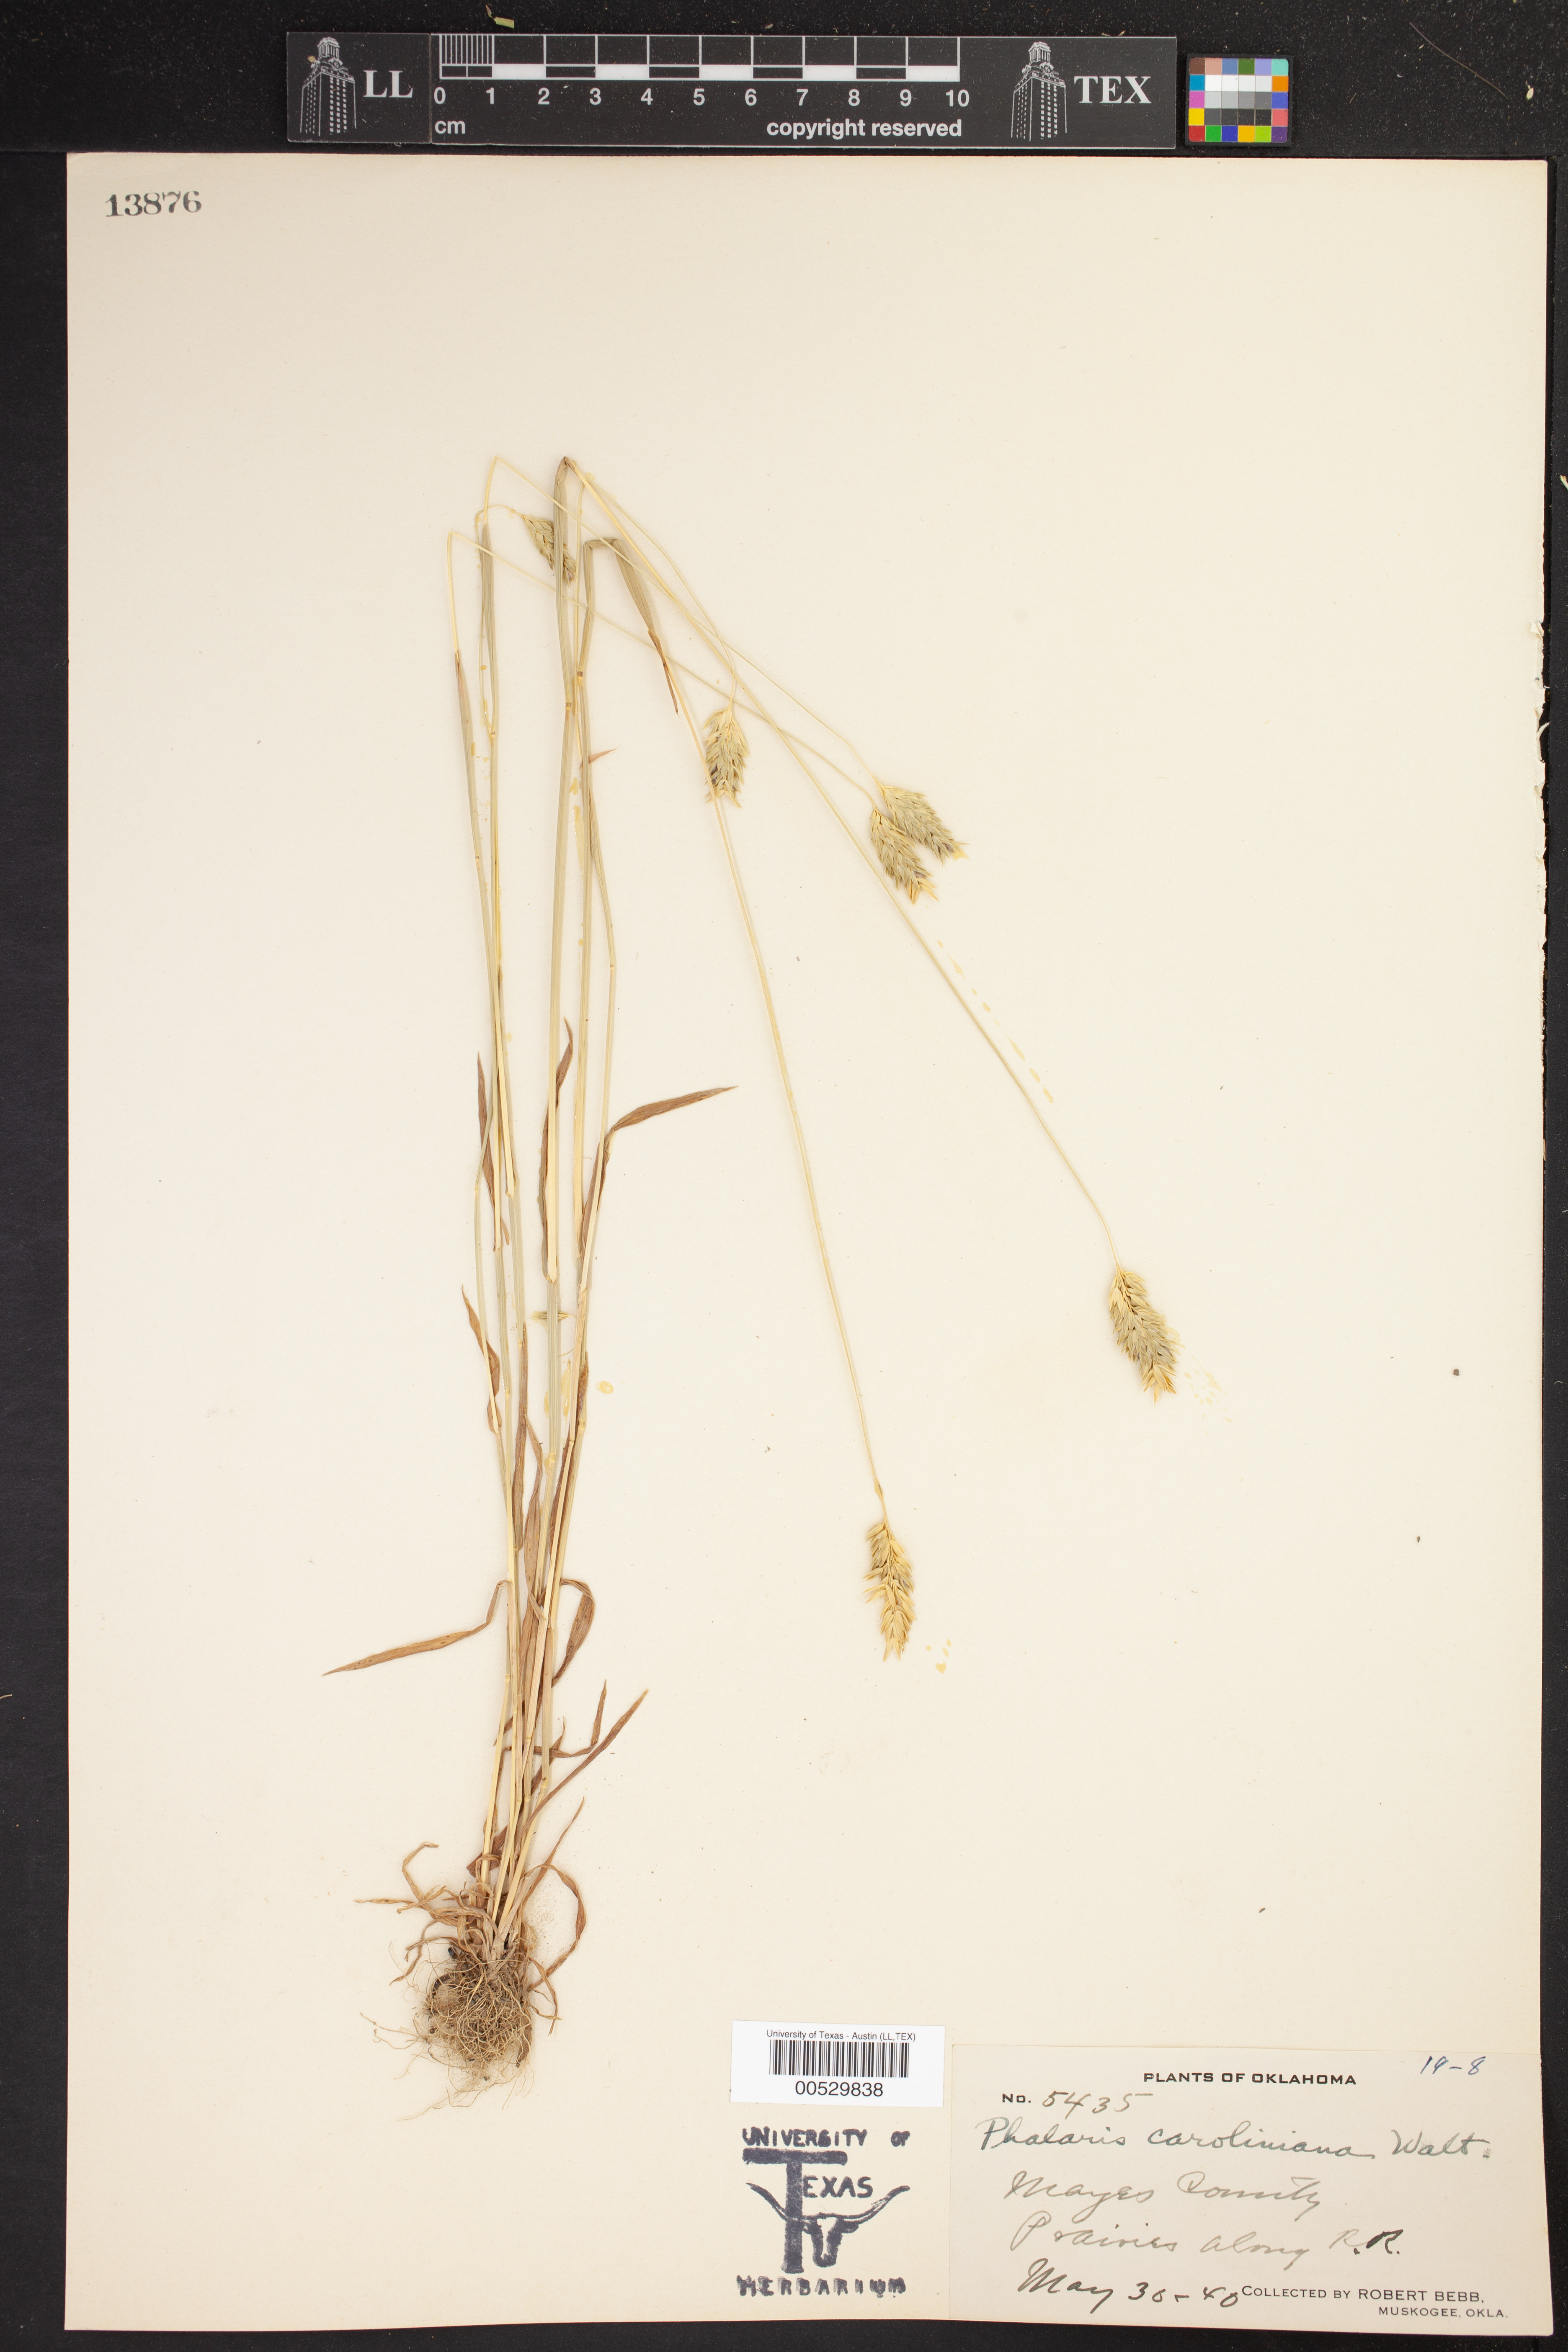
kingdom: Plantae
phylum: Tracheophyta
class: Liliopsida
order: Poales
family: Poaceae
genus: Phalaris
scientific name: Phalaris caroliniana
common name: May grass
